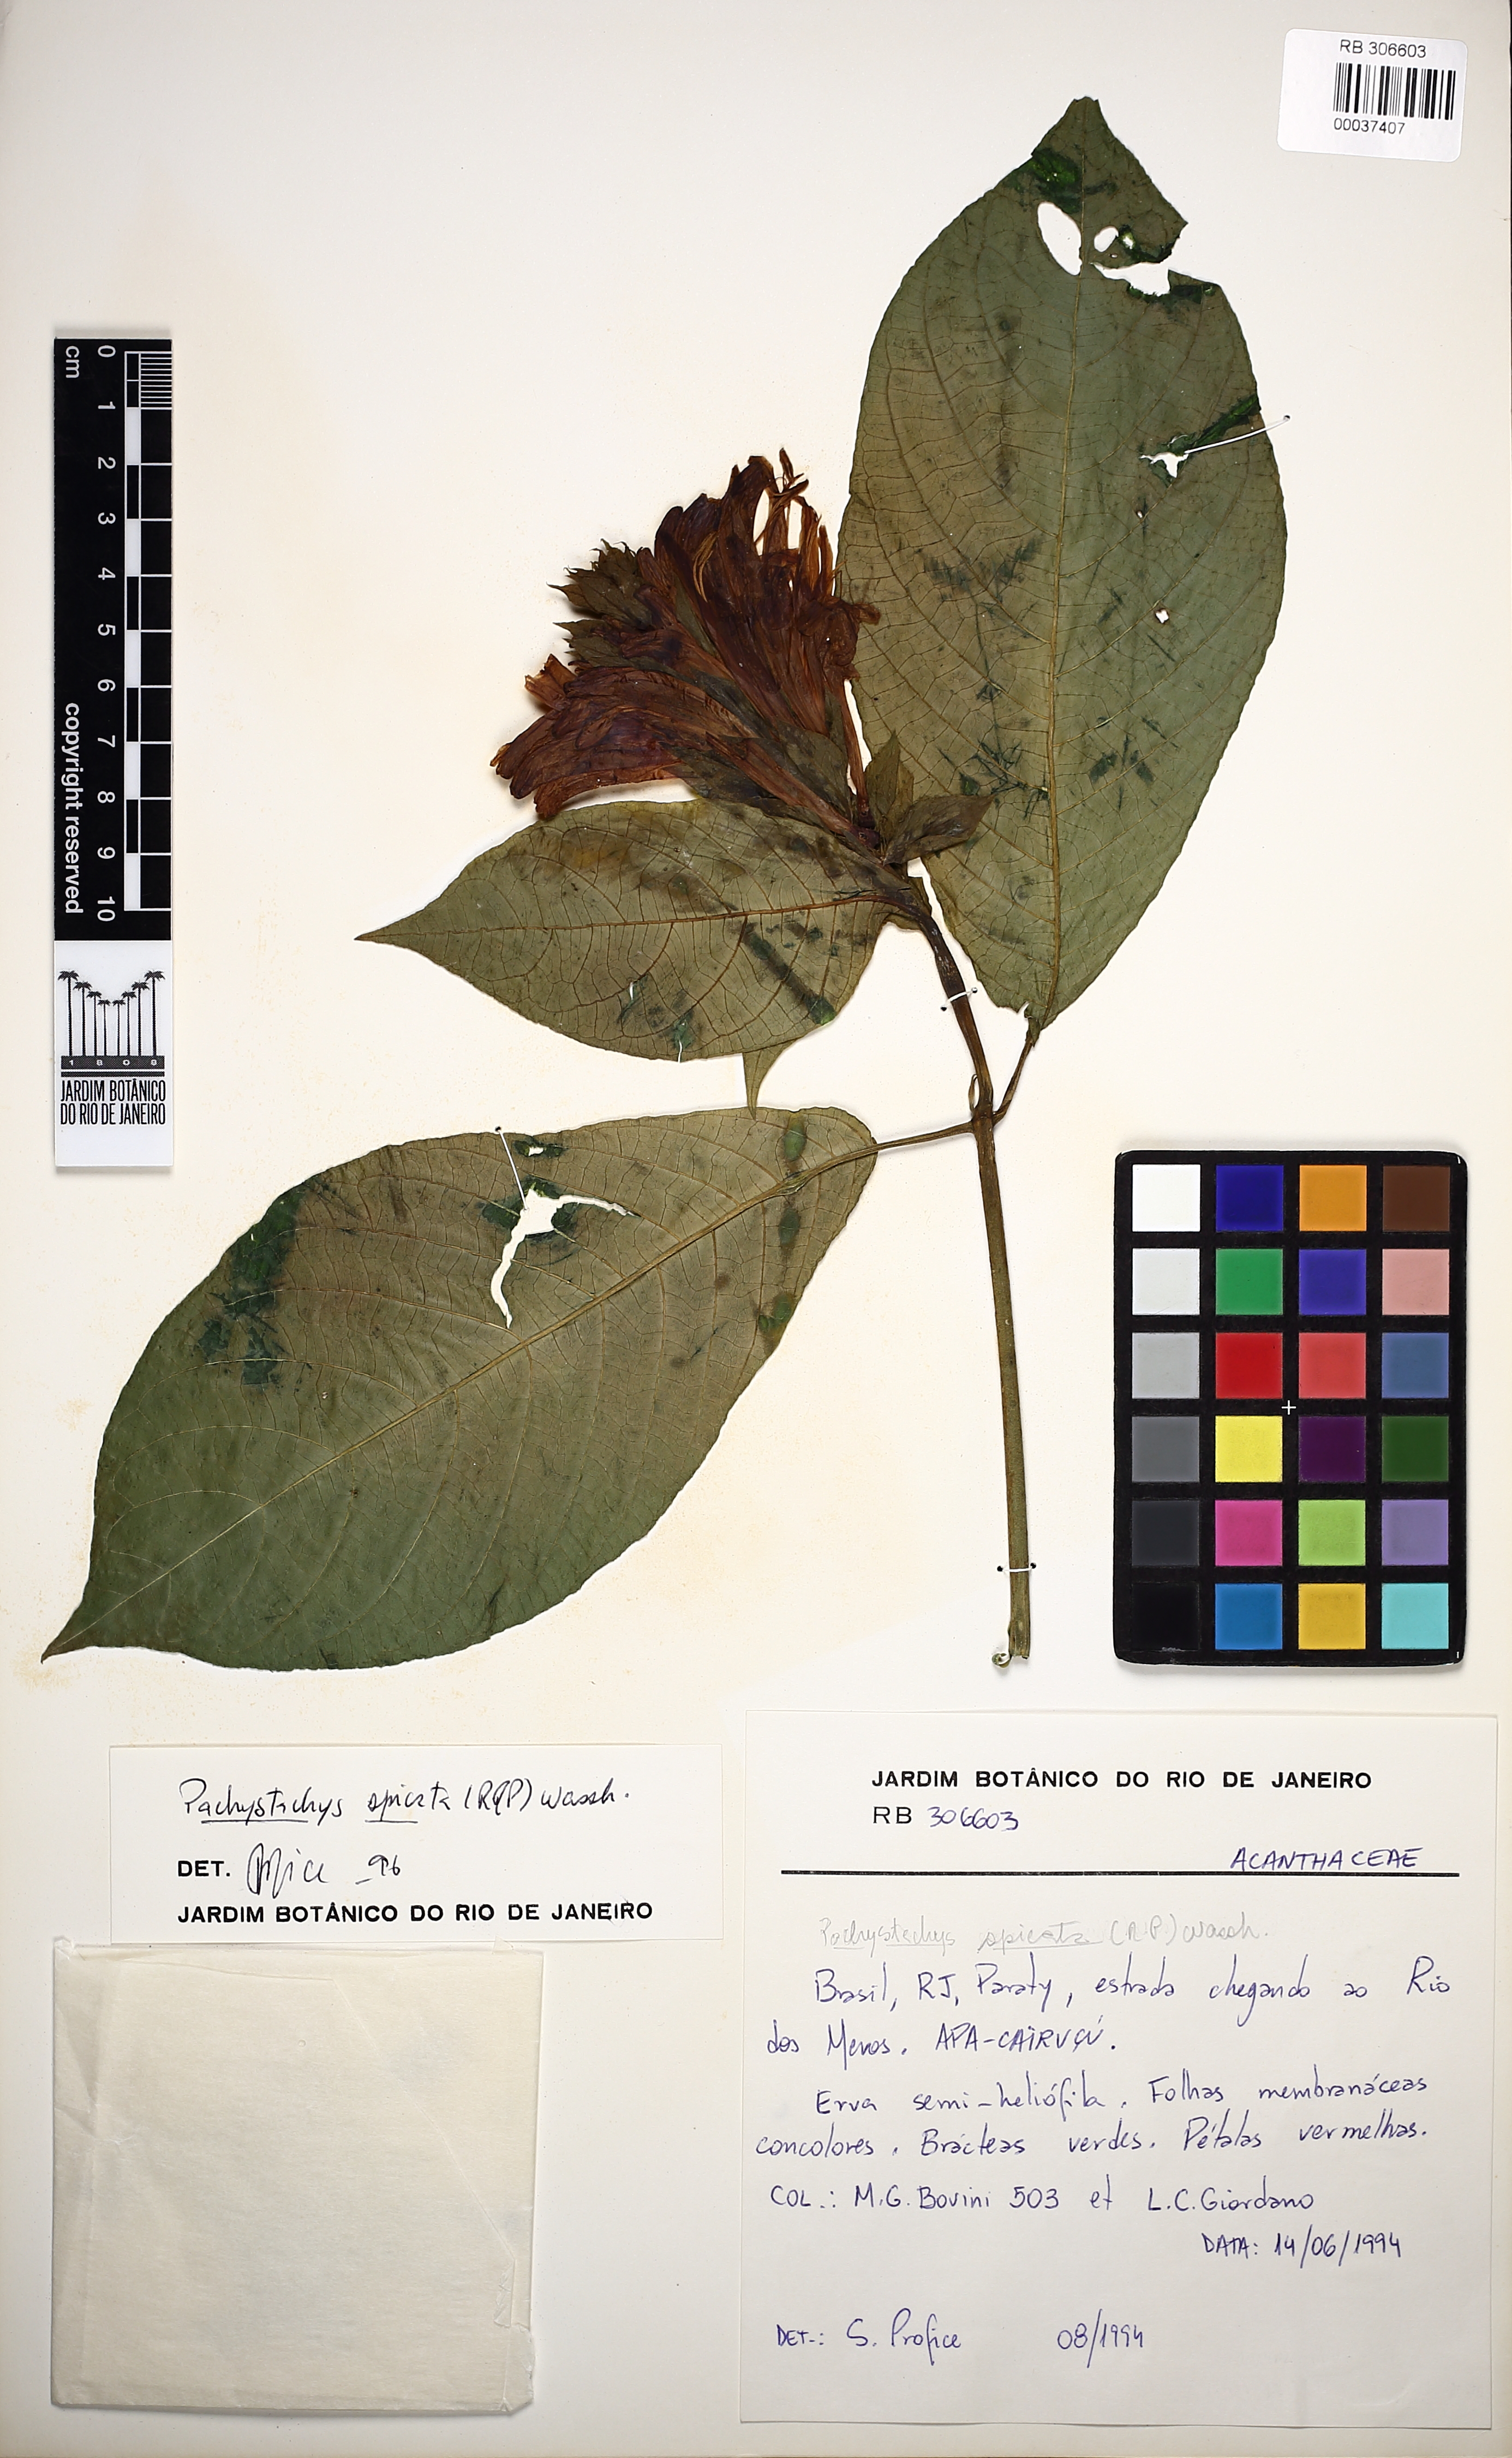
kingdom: Plantae
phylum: Tracheophyta
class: Magnoliopsida
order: Lamiales
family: Acanthaceae
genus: Pachystachys
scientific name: Pachystachys spicata
